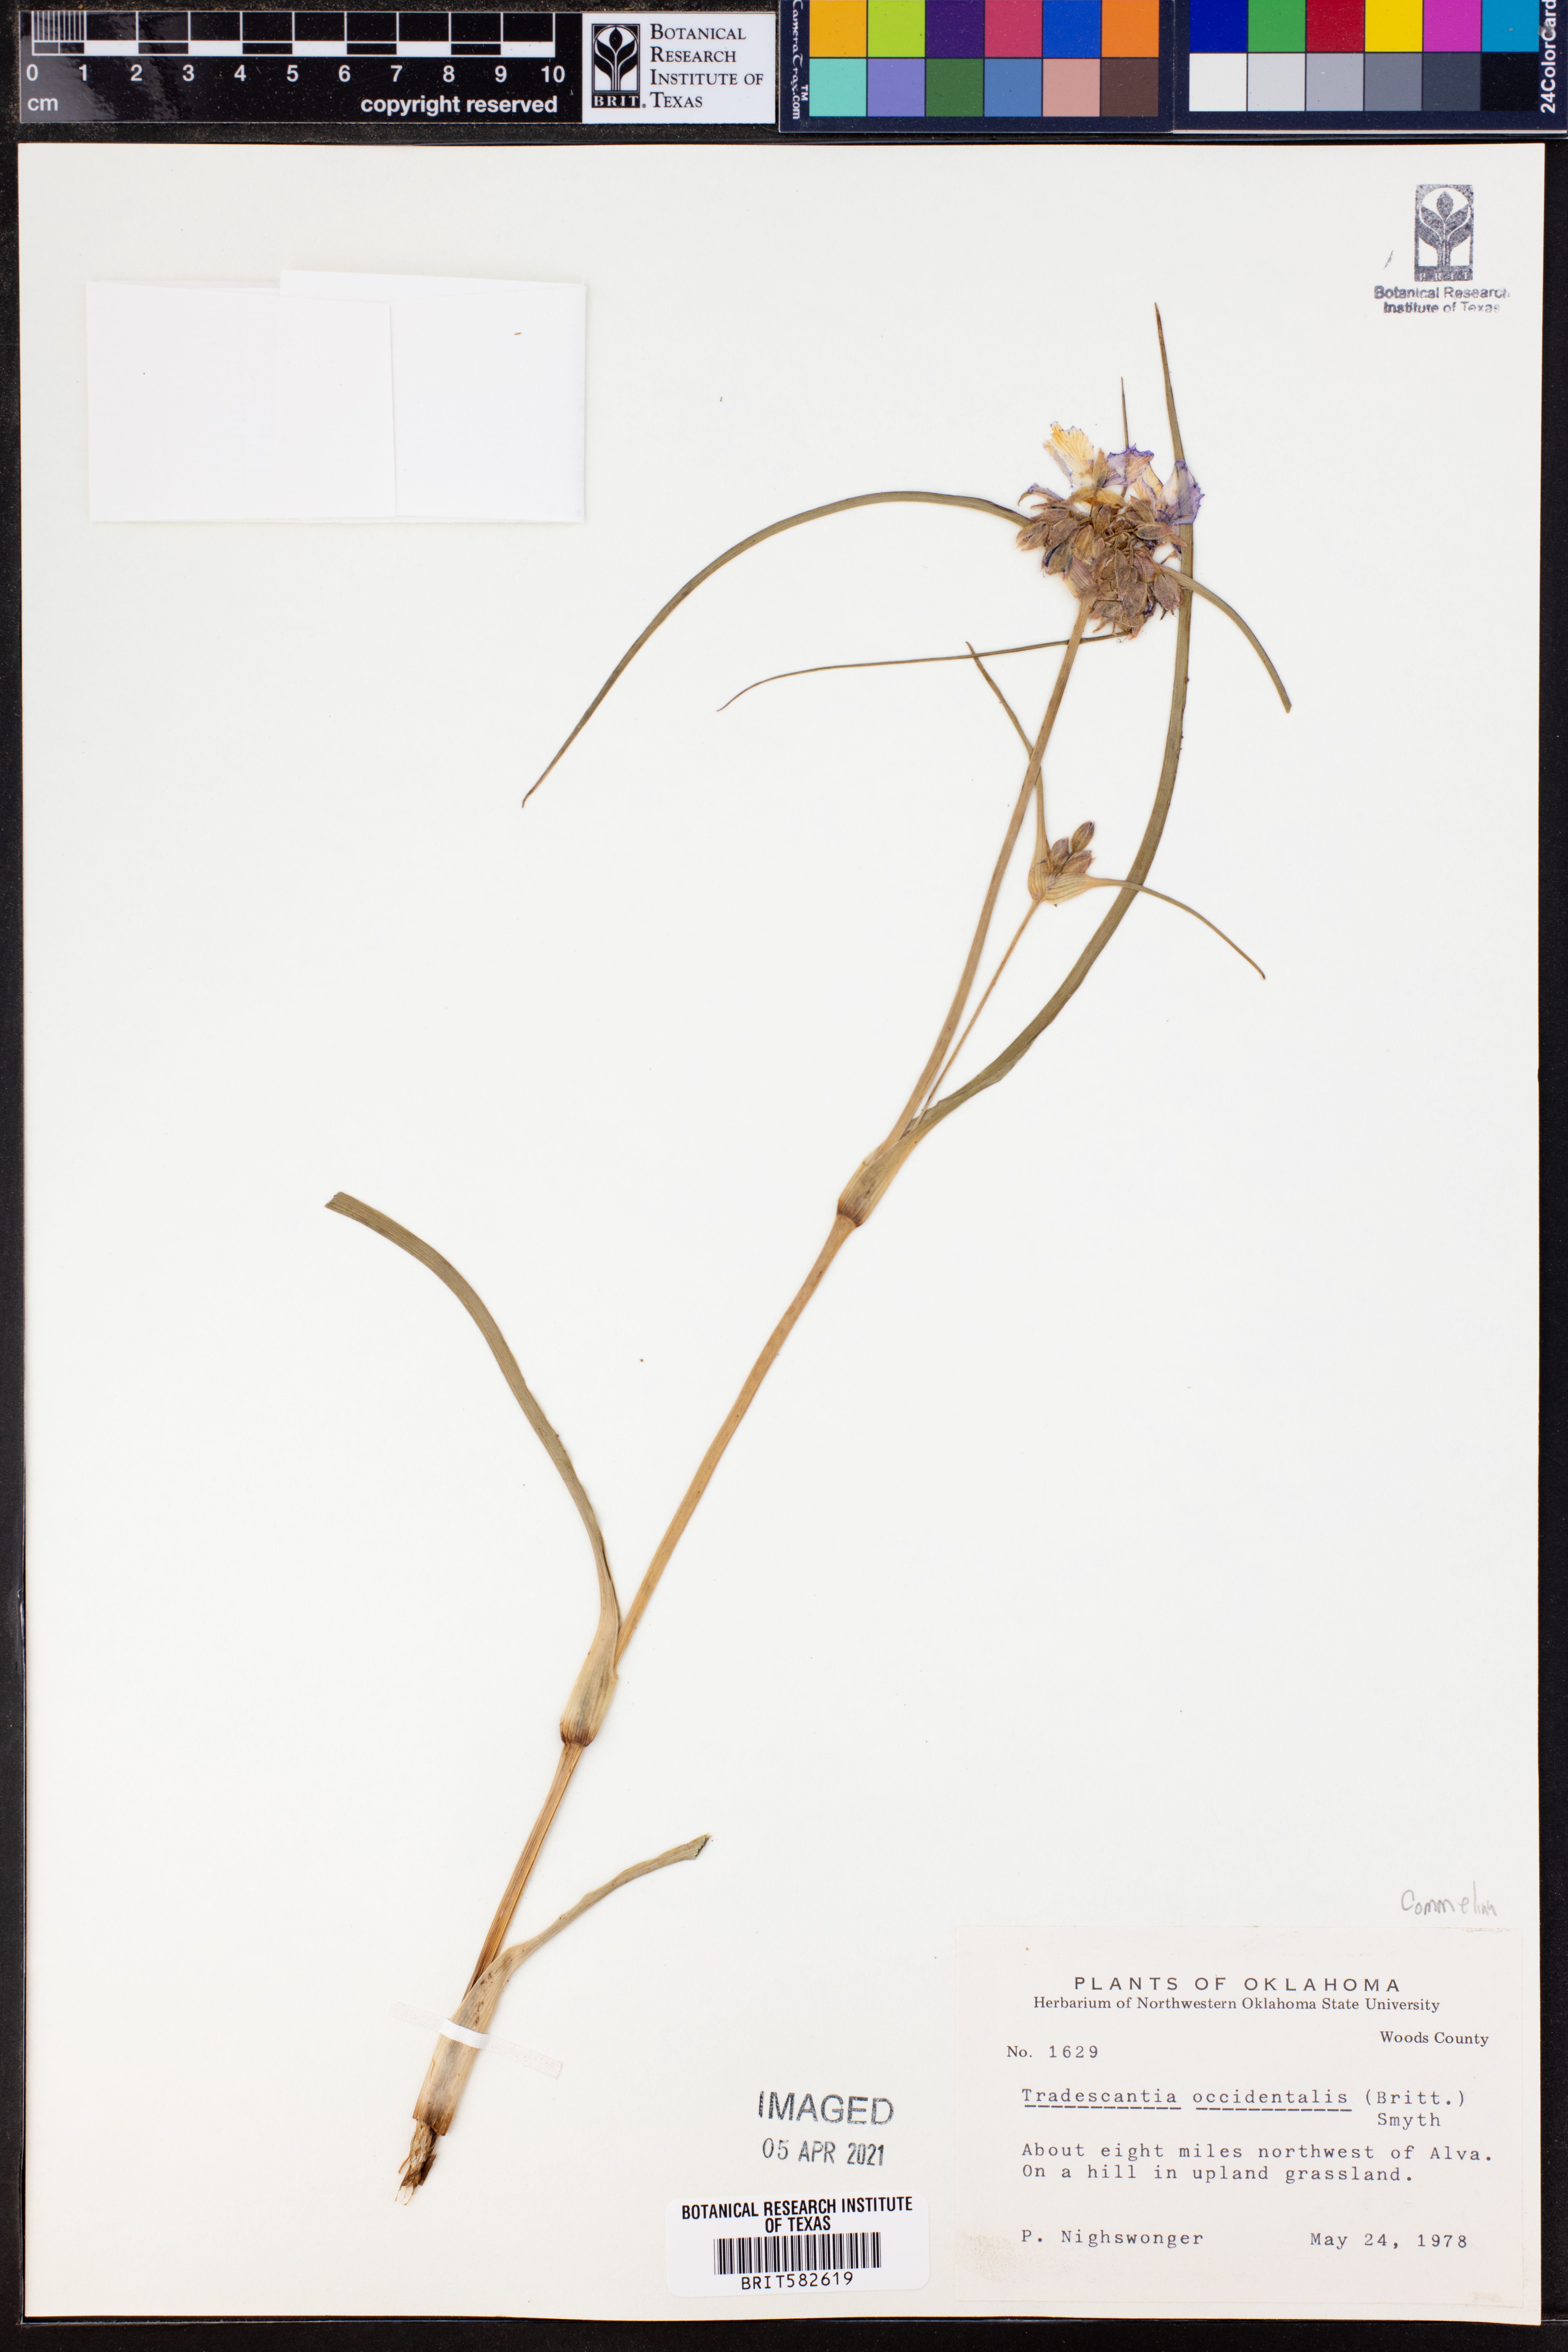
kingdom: Plantae
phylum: Tracheophyta
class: Liliopsida
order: Commelinales
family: Commelinaceae
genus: Tradescantia
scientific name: Tradescantia occidentalis
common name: Prairie spiderwort
